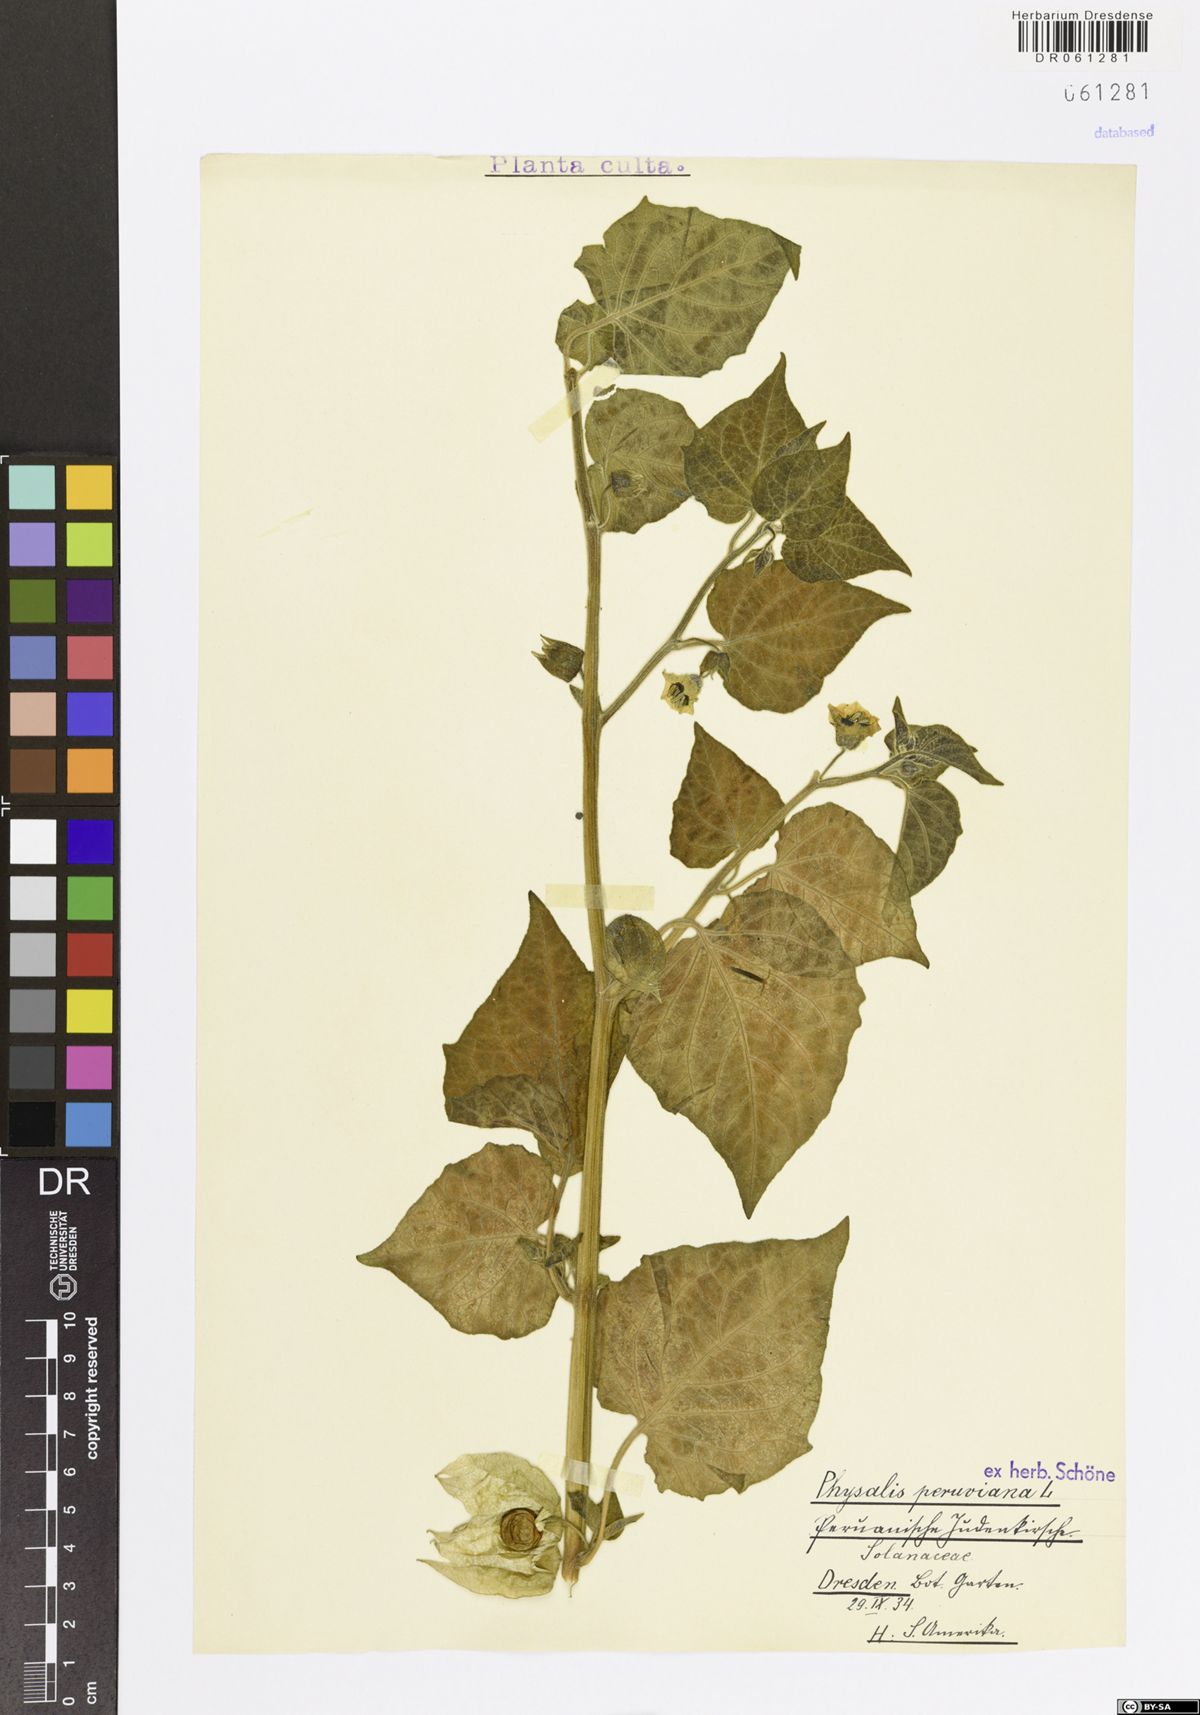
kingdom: Plantae
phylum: Tracheophyta
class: Magnoliopsida
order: Solanales
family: Solanaceae
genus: Physalis
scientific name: Physalis peruviana
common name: Cape-gooseberry
